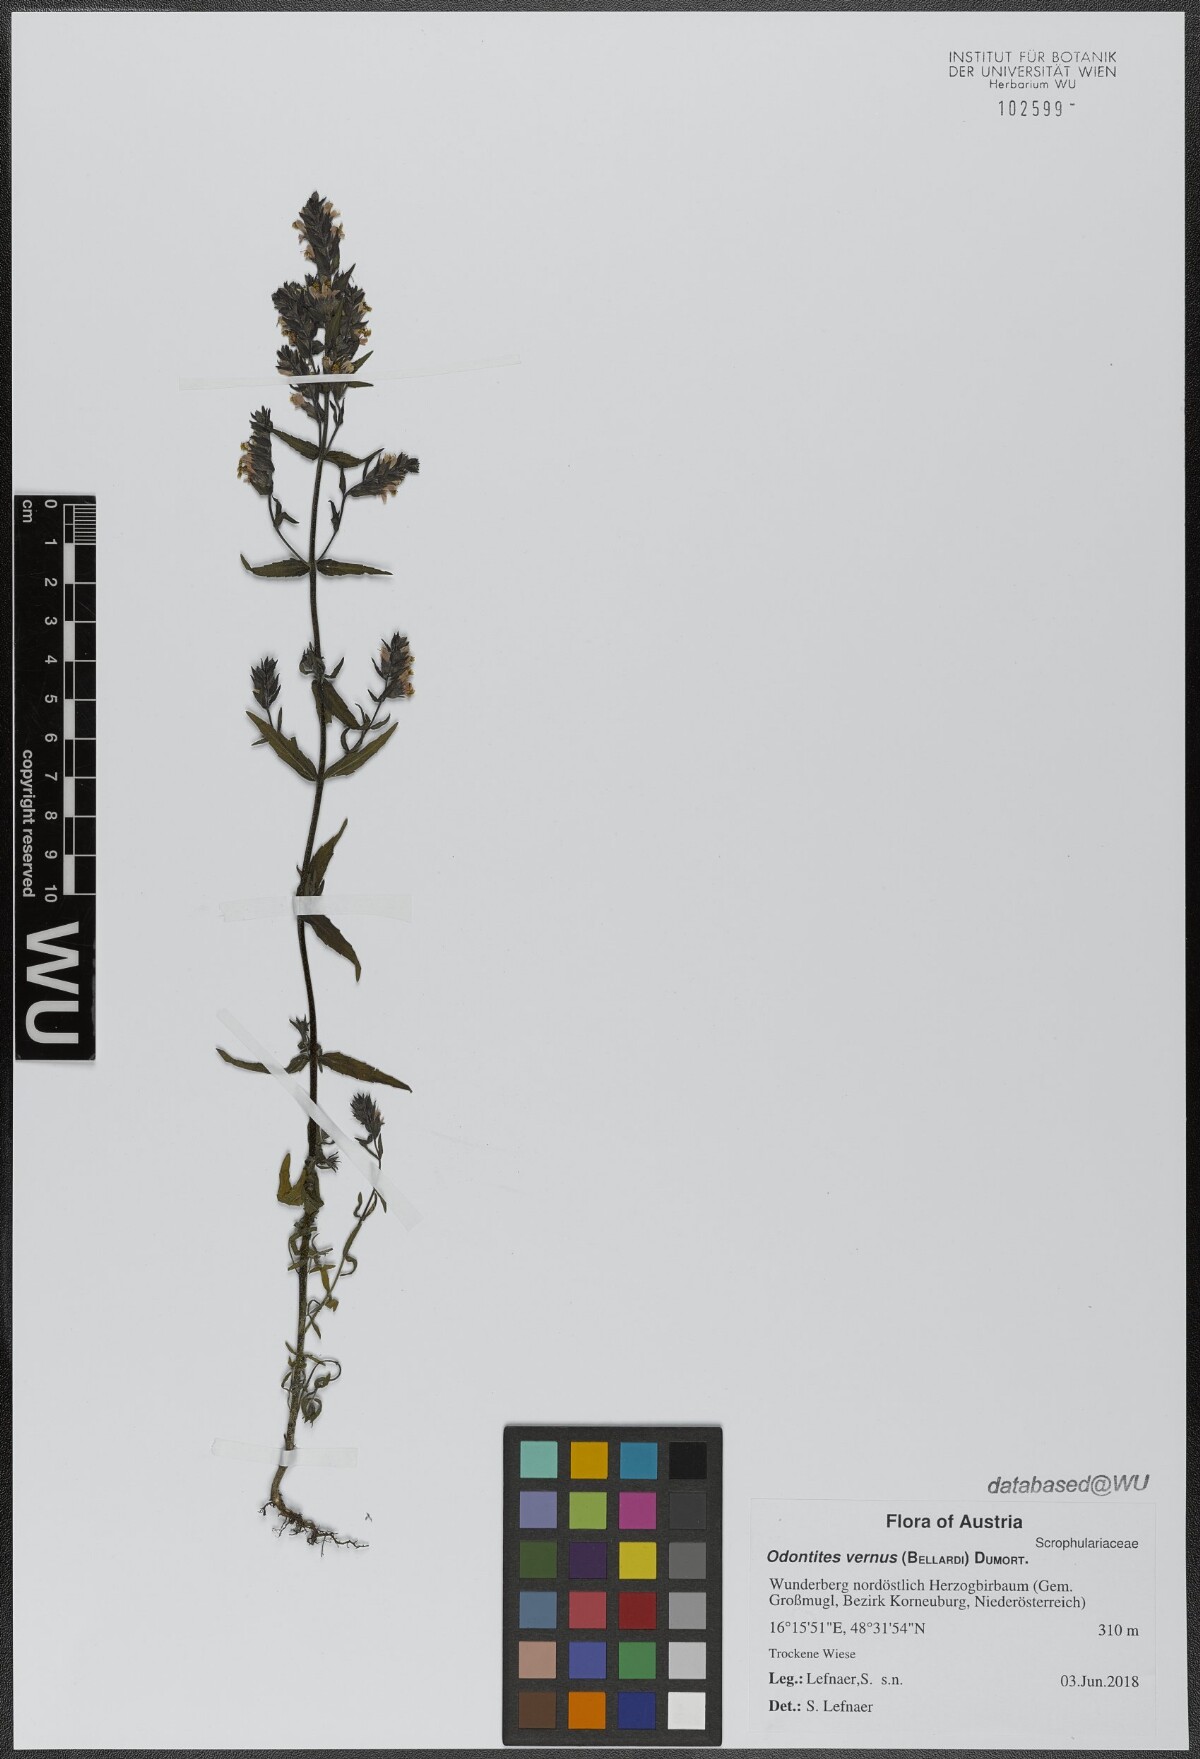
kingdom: Plantae
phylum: Tracheophyta
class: Magnoliopsida
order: Lamiales
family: Orobanchaceae
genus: Odontites
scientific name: Odontites vernus
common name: Red bartsia
